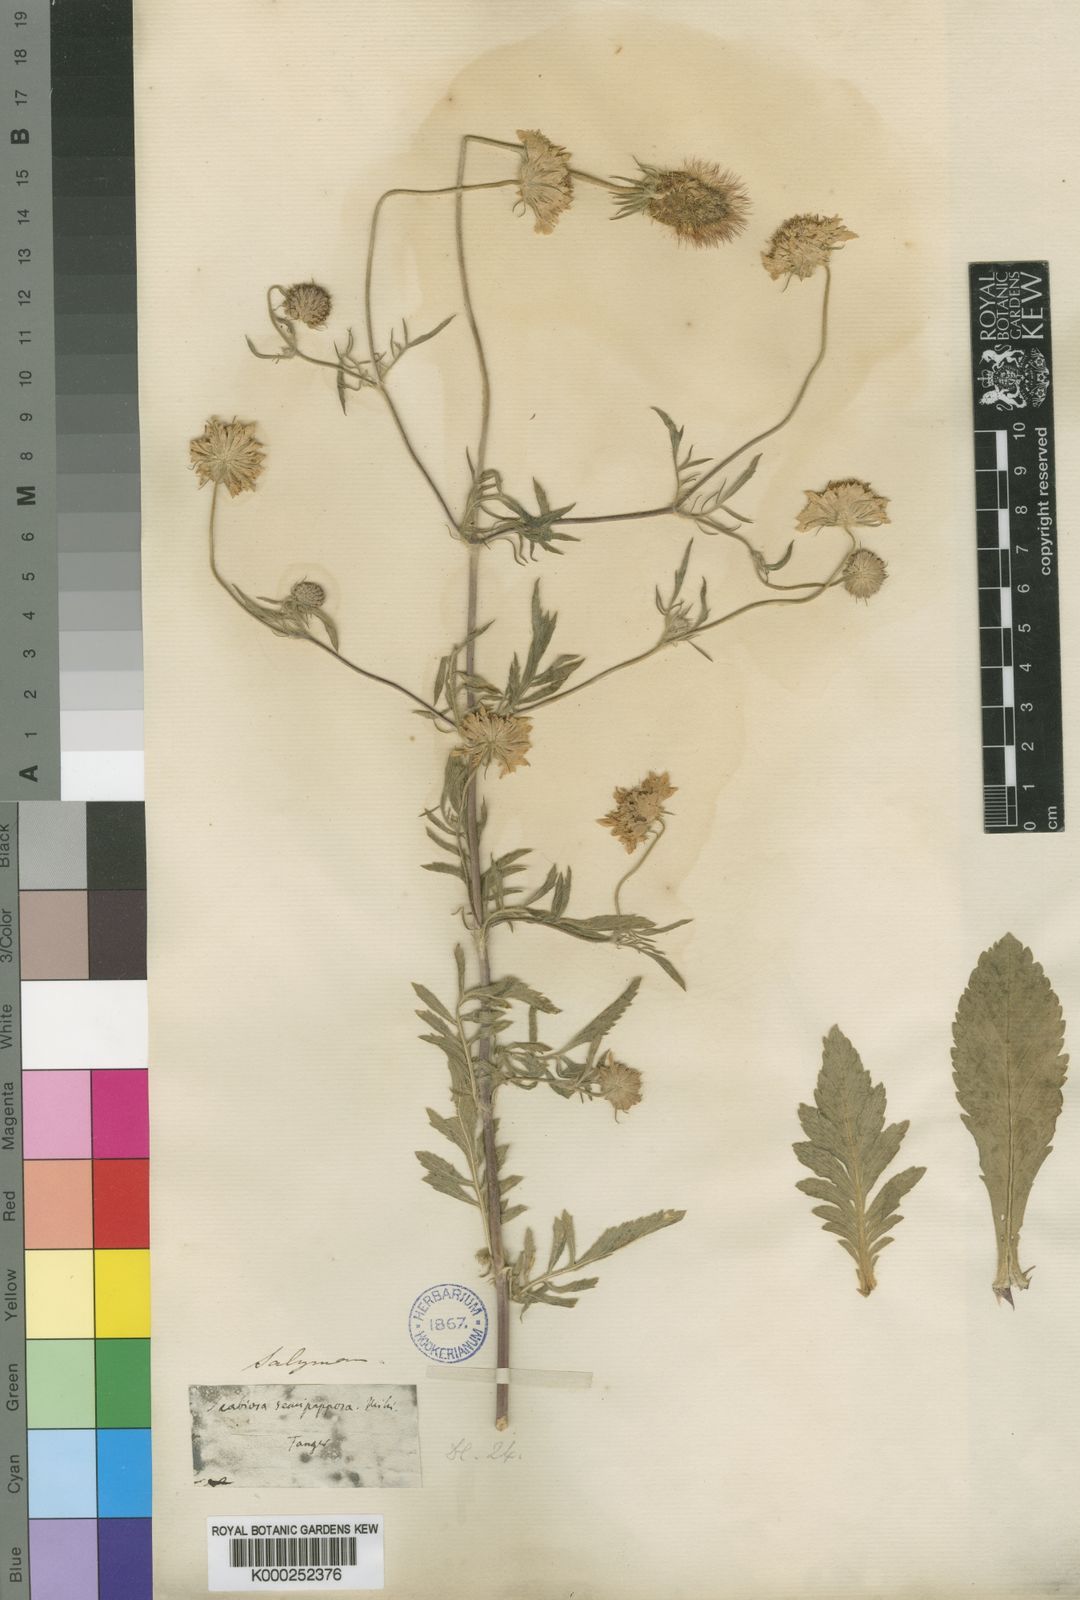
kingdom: Plantae
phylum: Tracheophyta
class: Magnoliopsida
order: Dipsacales
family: Caprifoliaceae
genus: Sixalix
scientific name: Sixalix semipapposa
